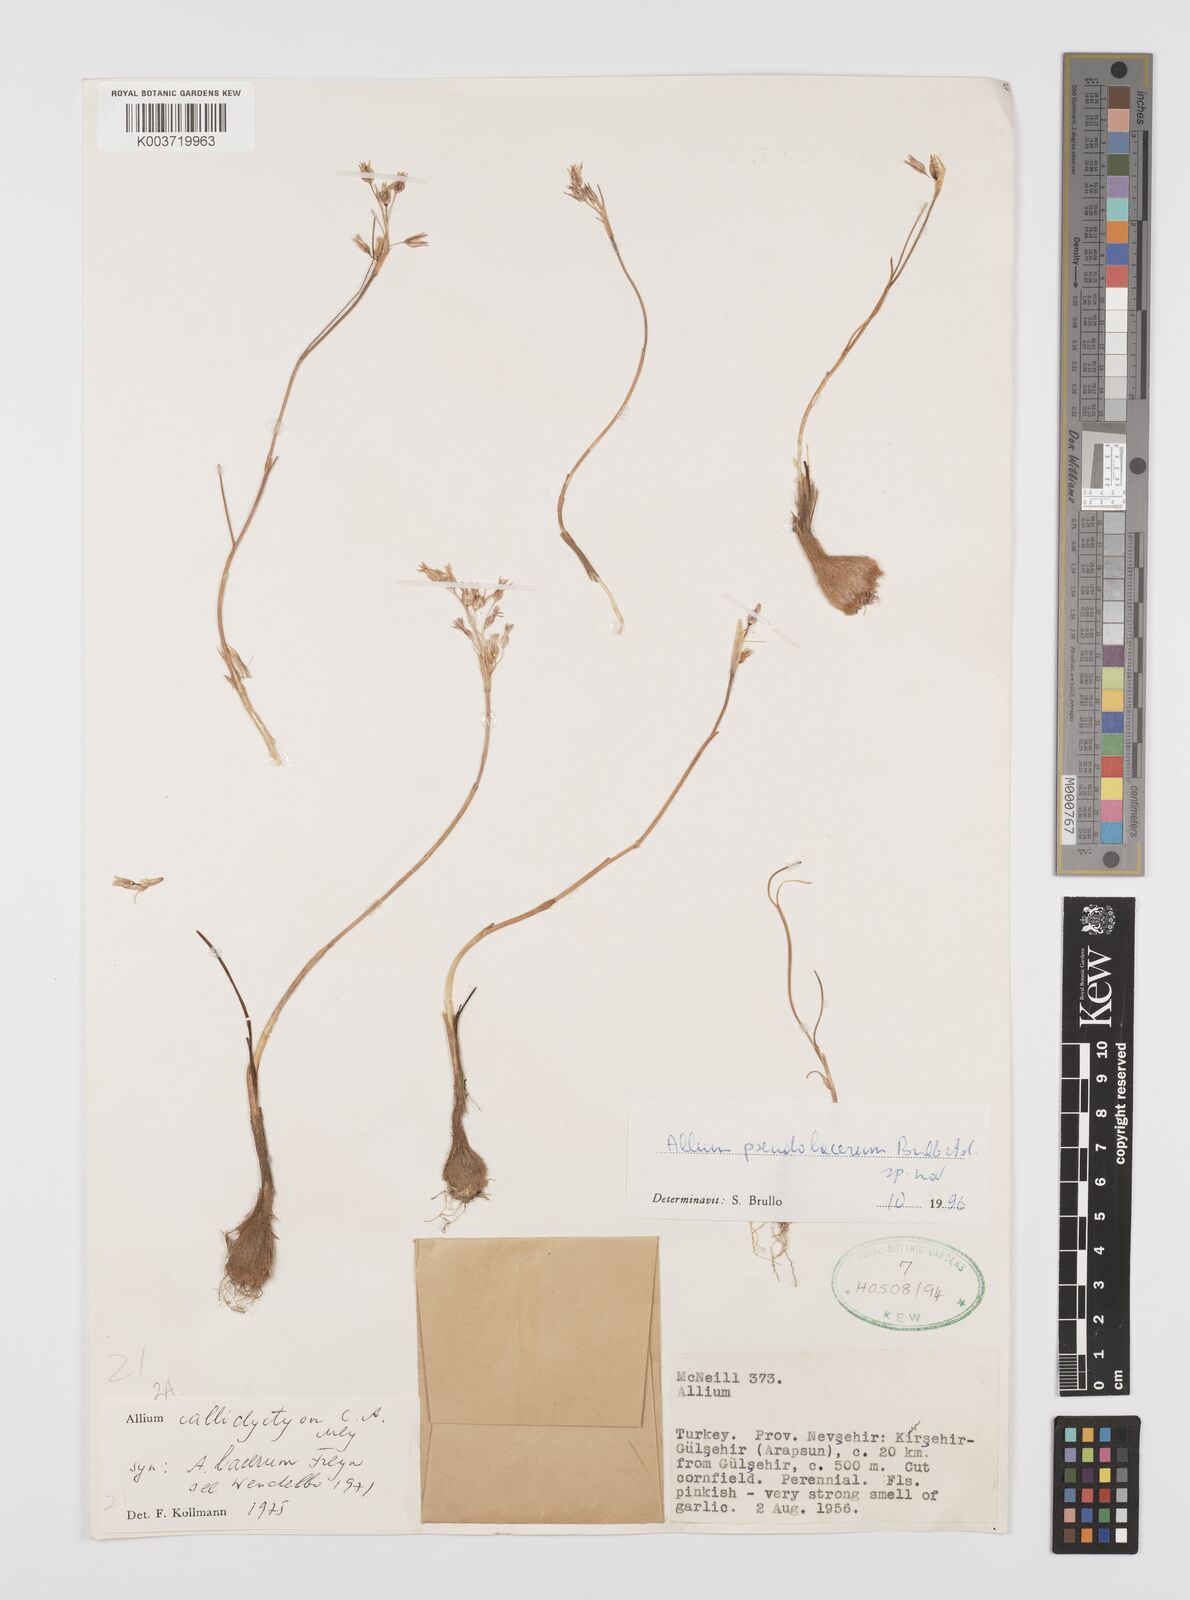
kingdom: Plantae
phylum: Tracheophyta
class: Liliopsida
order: Asparagales
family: Amaryllidaceae
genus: Allium
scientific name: Allium
